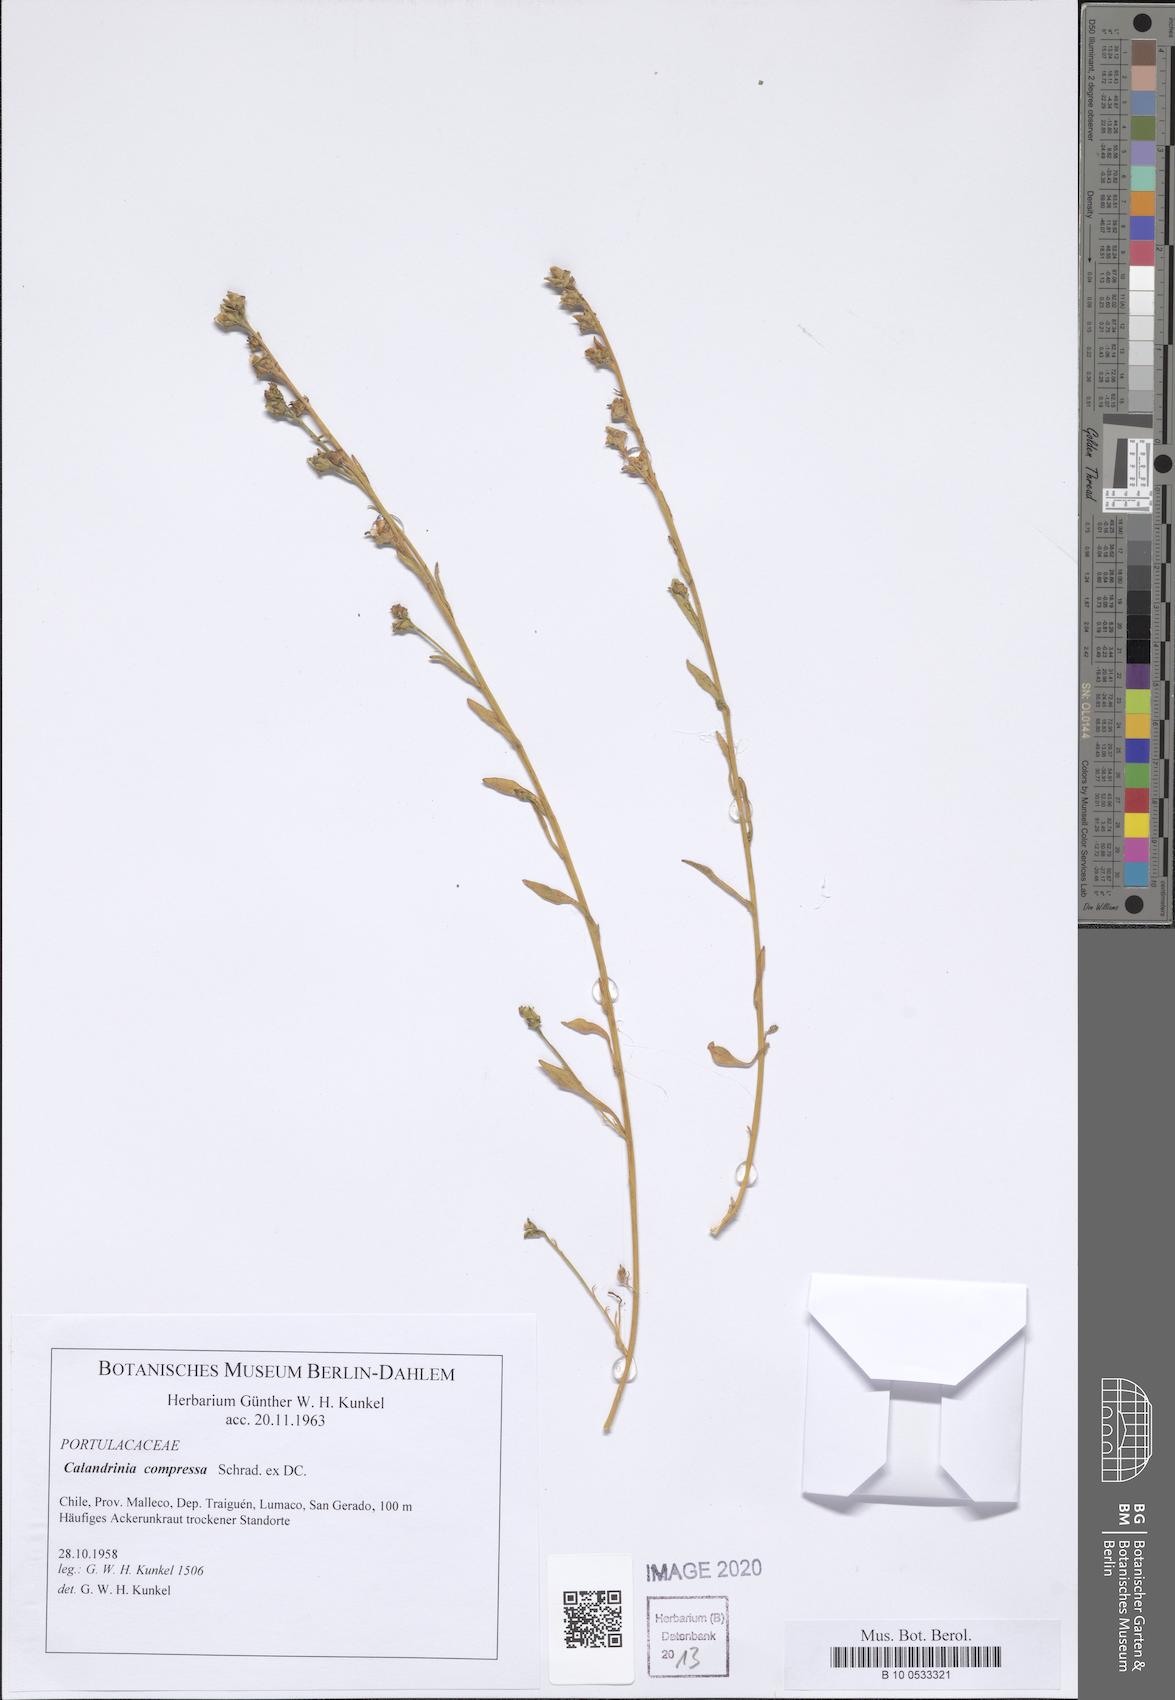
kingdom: Plantae
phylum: Tracheophyta
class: Magnoliopsida
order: Caryophyllales
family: Montiaceae
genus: Calandrinia
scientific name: Calandrinia pilosiuscula
